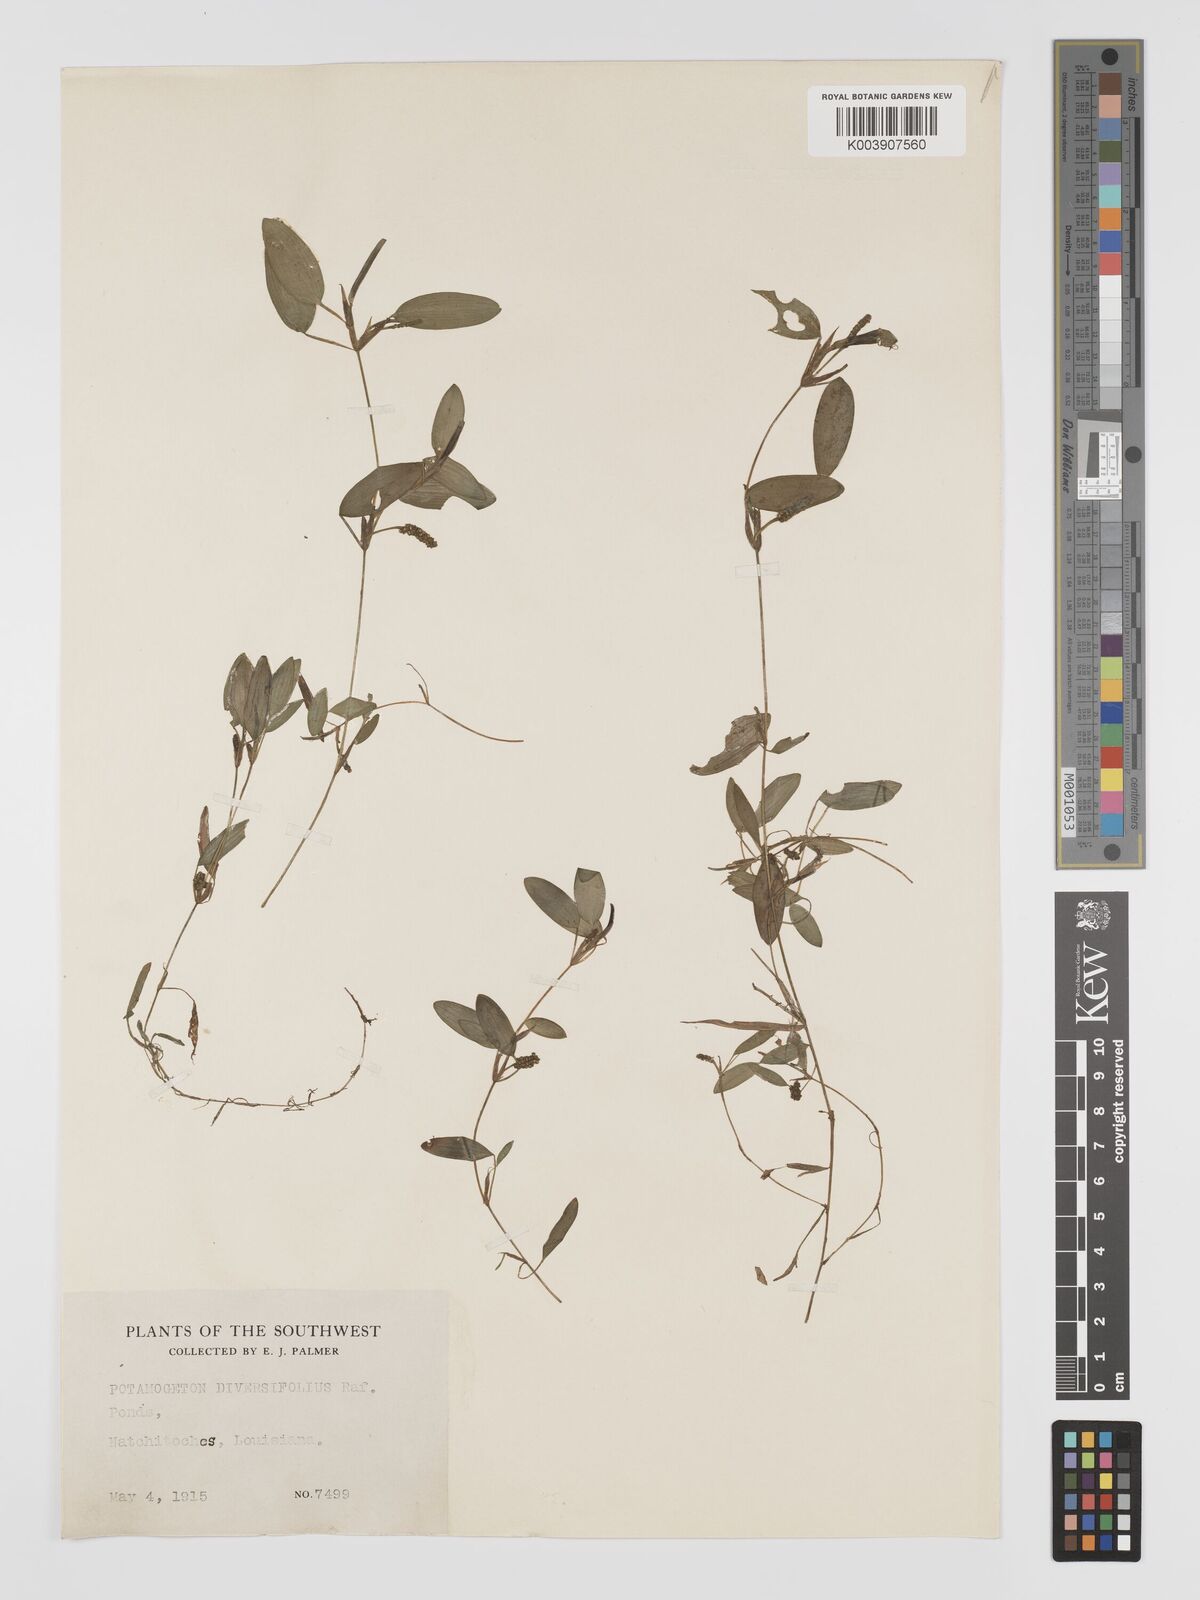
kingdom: Plantae
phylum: Tracheophyta
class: Liliopsida
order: Alismatales
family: Potamogetonaceae
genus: Potamogeton
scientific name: Potamogeton bicupulatus
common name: Snail-seed pondweed
